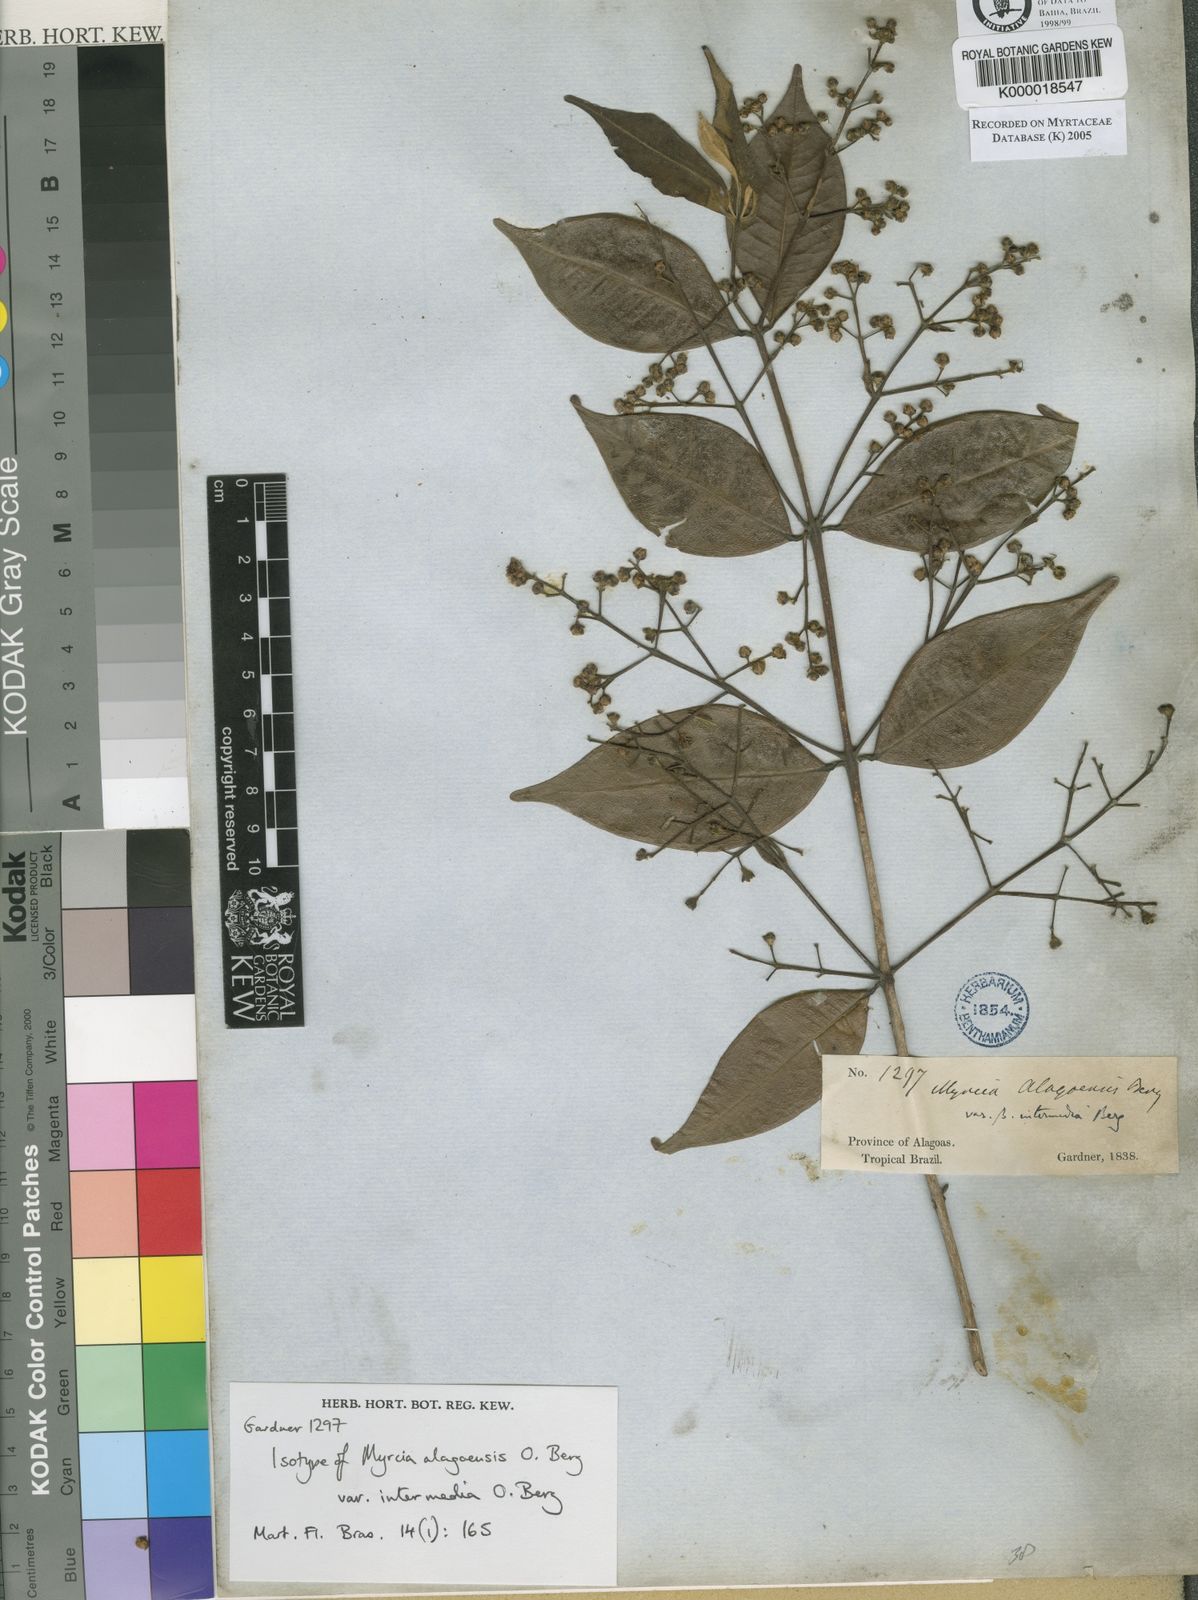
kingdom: Plantae
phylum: Tracheophyta
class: Magnoliopsida
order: Myrtales
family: Myrtaceae
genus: Myrcia
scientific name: Myrcia splendens
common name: Surinam cherry
